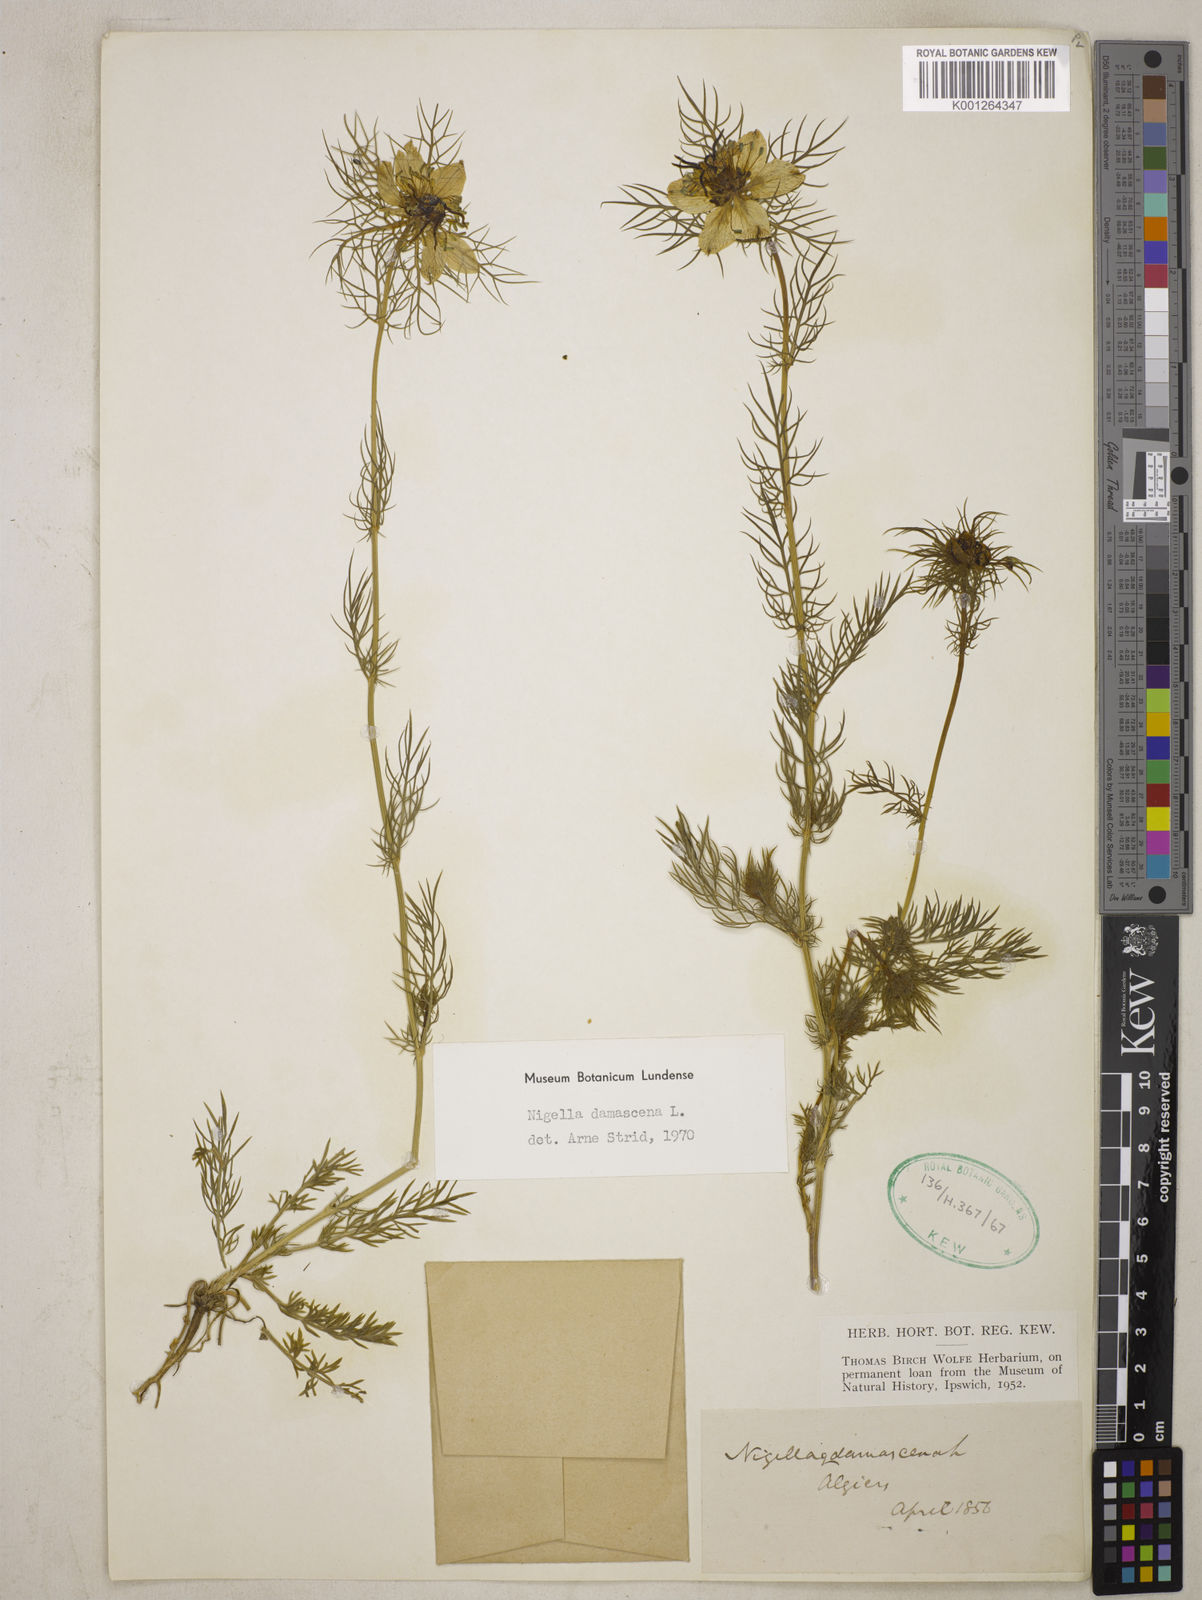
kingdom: Plantae
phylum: Tracheophyta
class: Magnoliopsida
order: Ranunculales
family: Ranunculaceae
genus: Nigella
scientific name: Nigella damascena
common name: Love-in-a-mist
